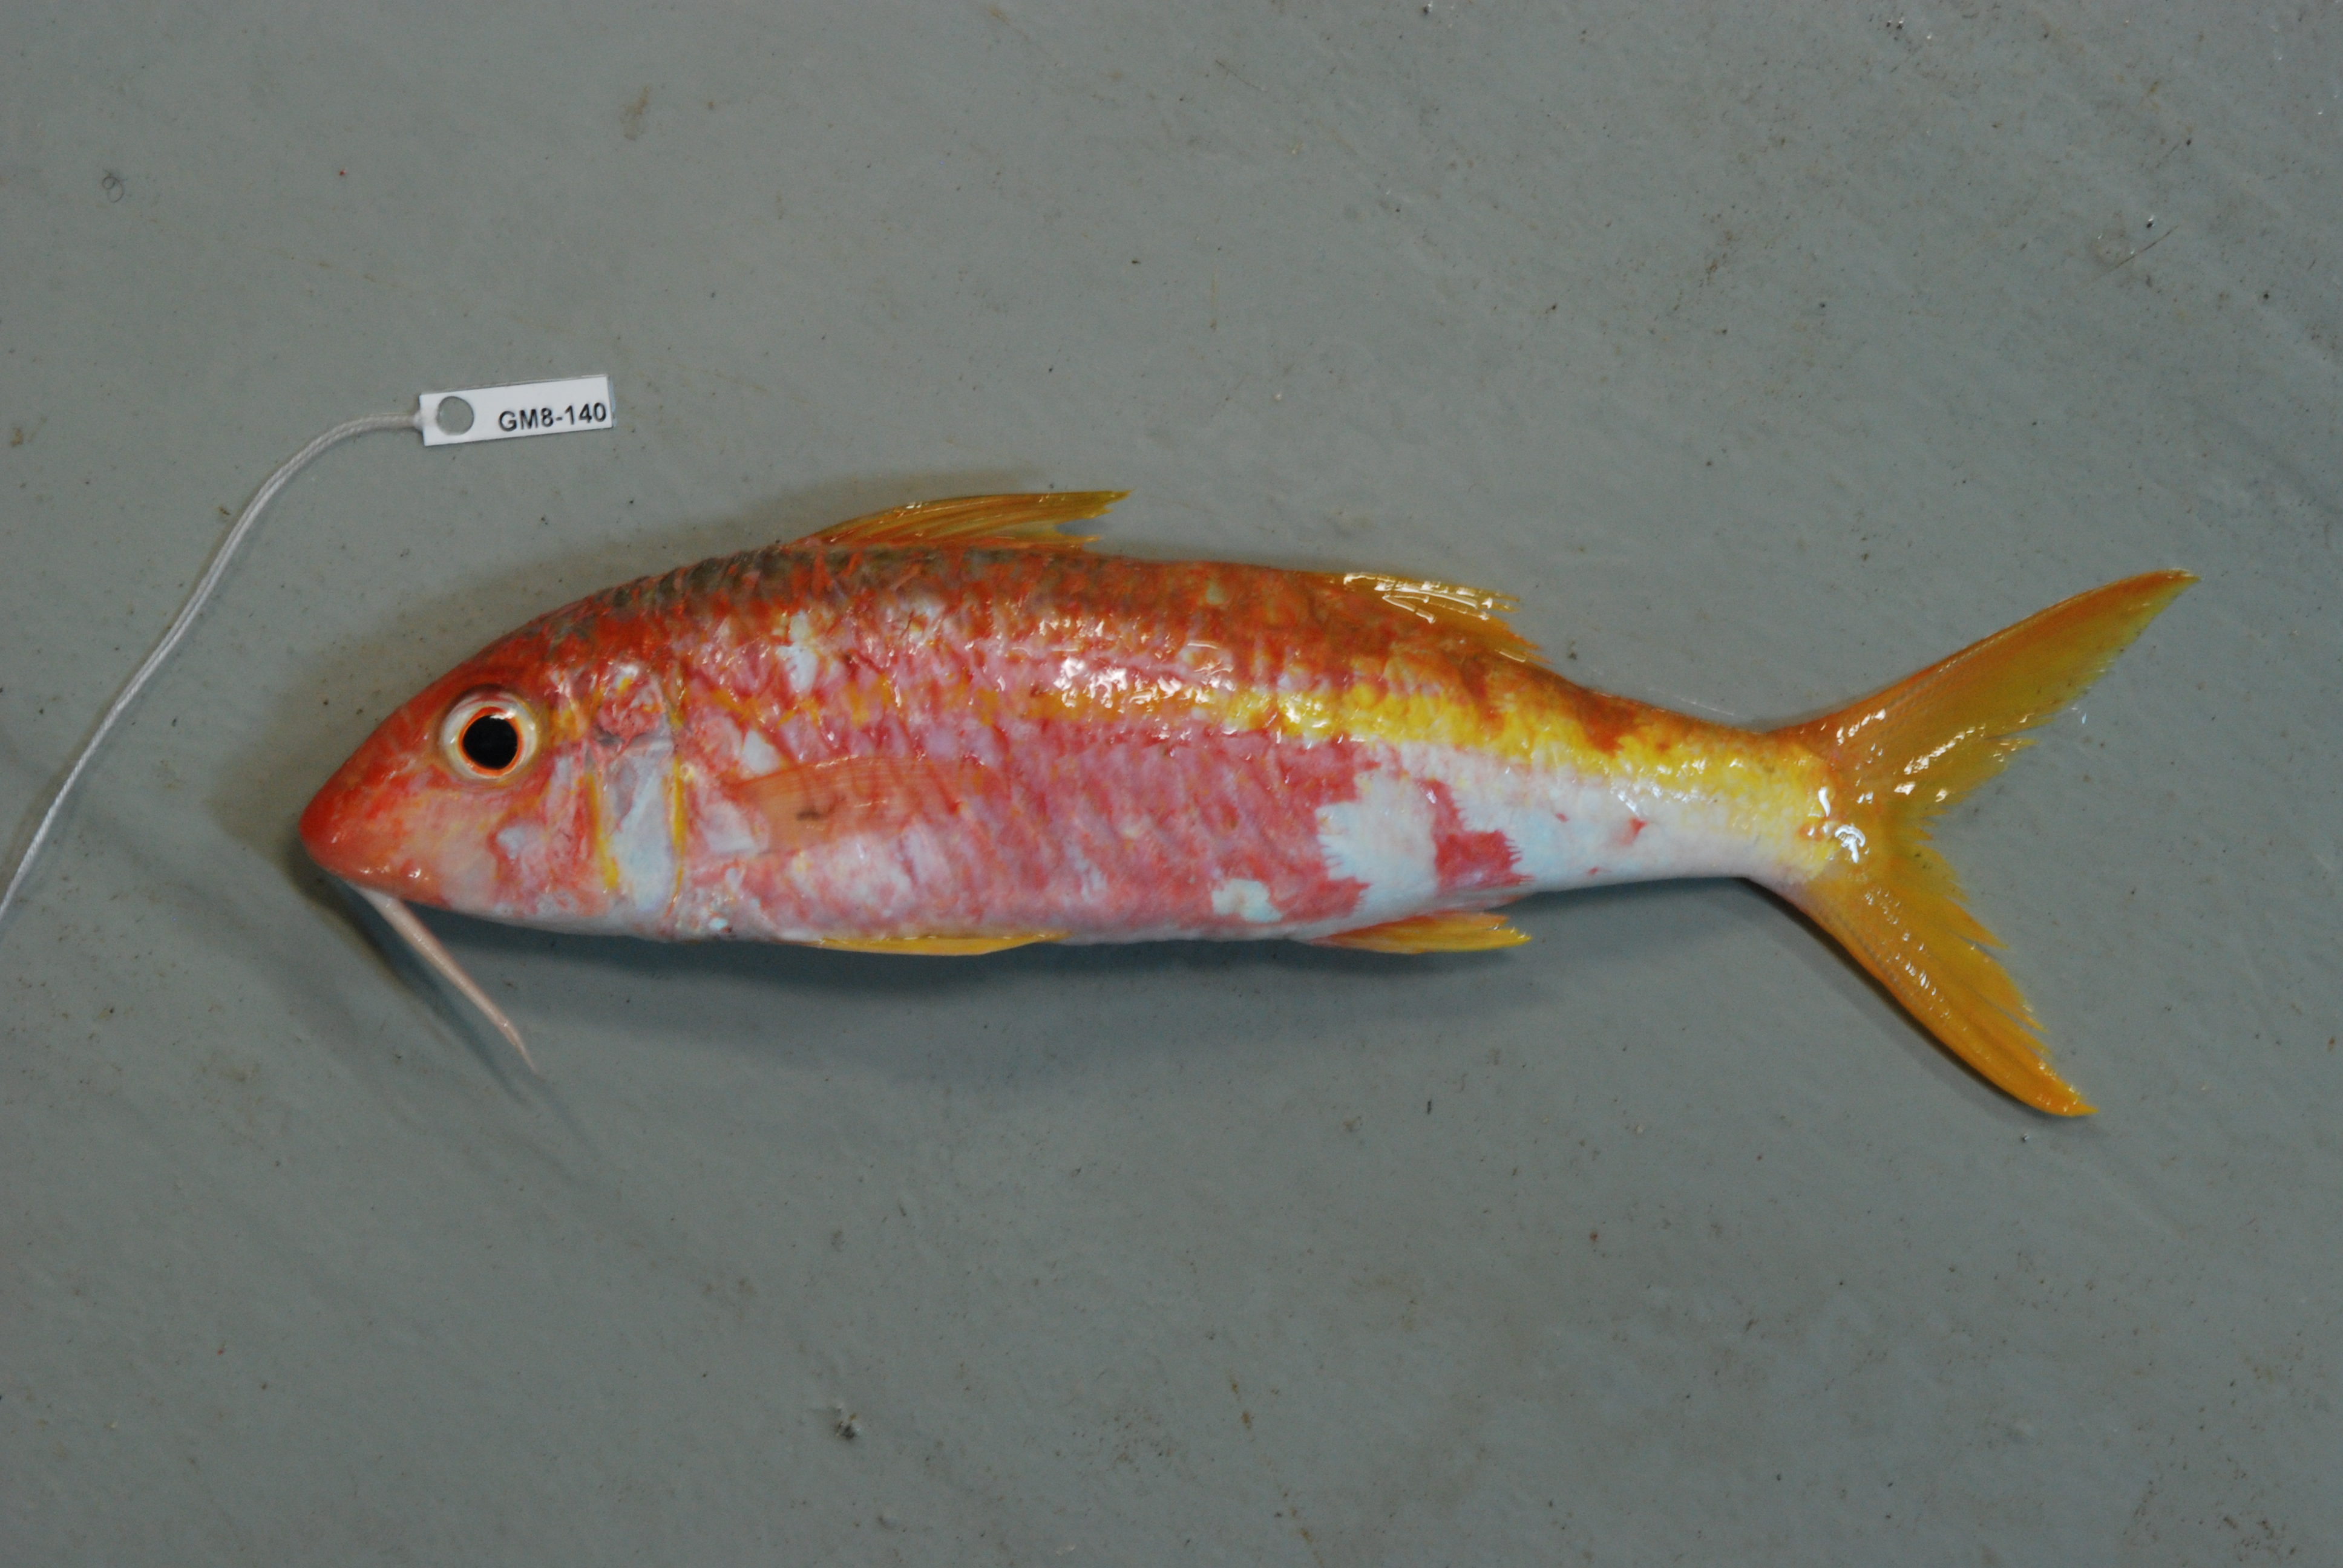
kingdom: Animalia
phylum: Chordata
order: Perciformes
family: Mullidae
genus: Parupeneus
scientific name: Parupeneus
